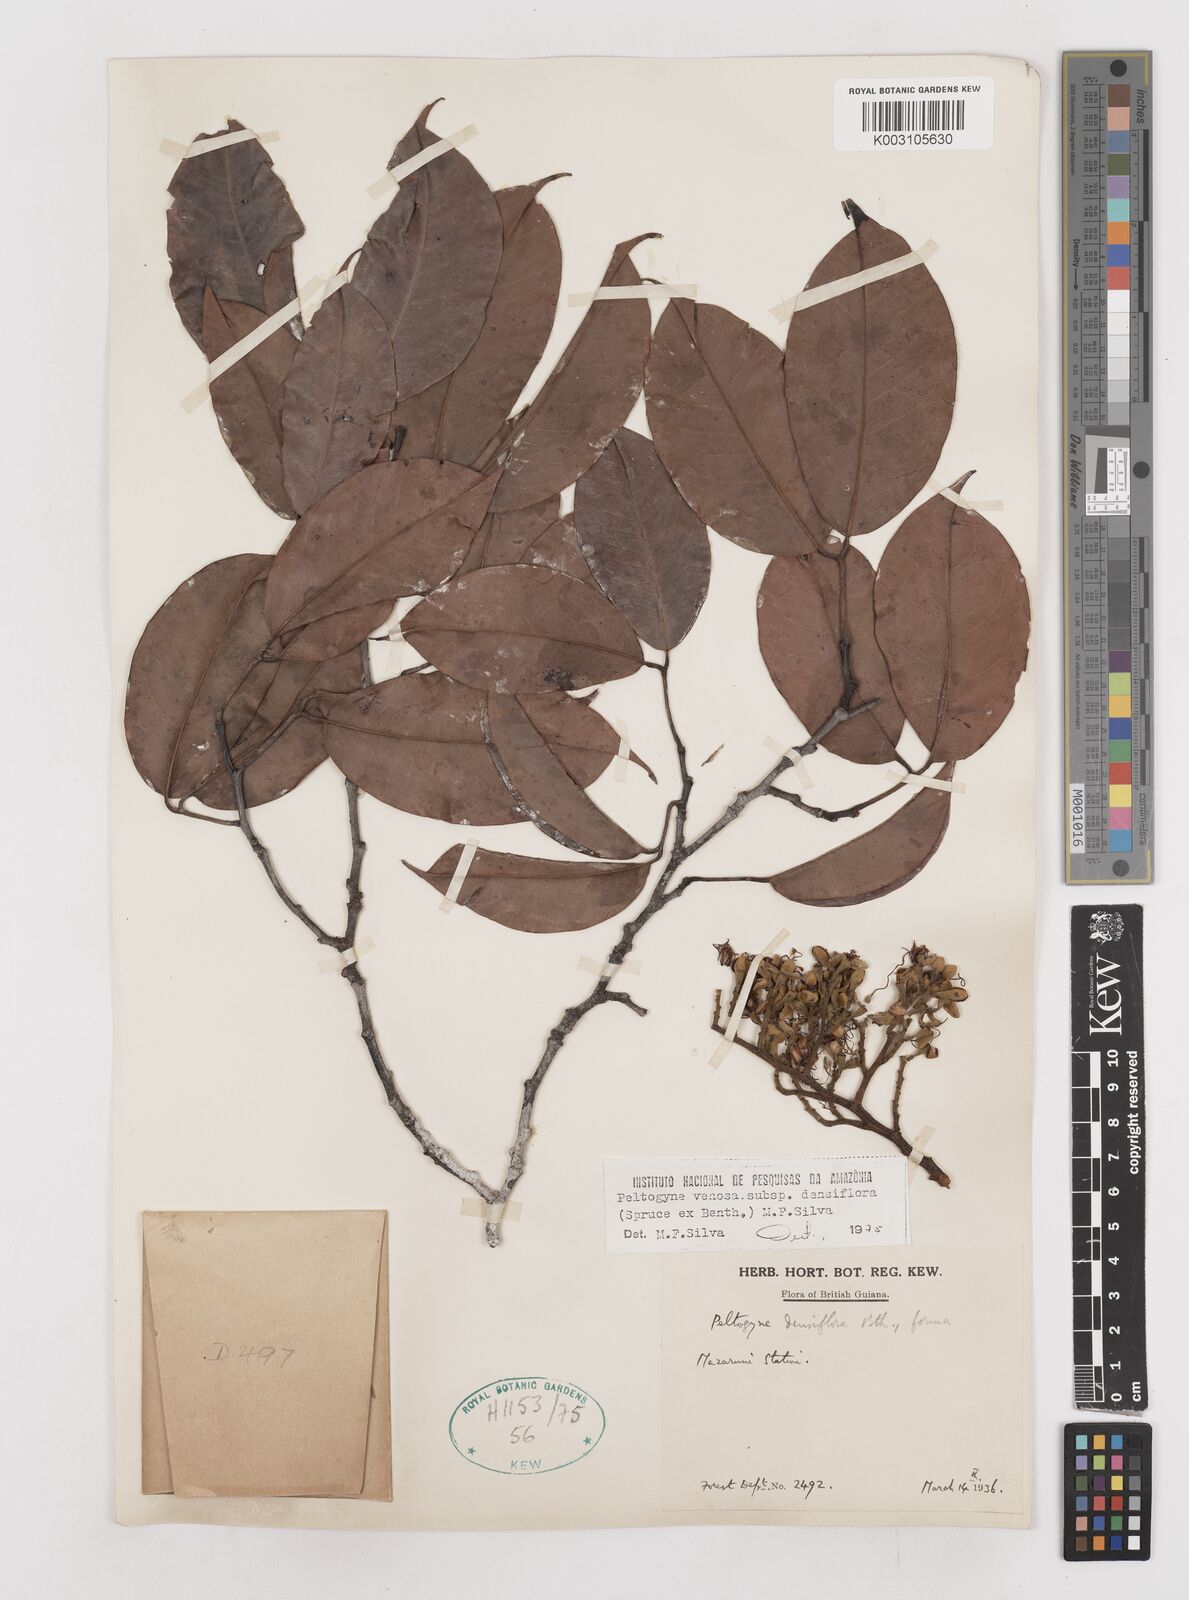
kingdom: Plantae
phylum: Tracheophyta
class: Magnoliopsida
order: Fabales
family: Fabaceae
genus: Peltogyne
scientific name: Peltogyne venosa
